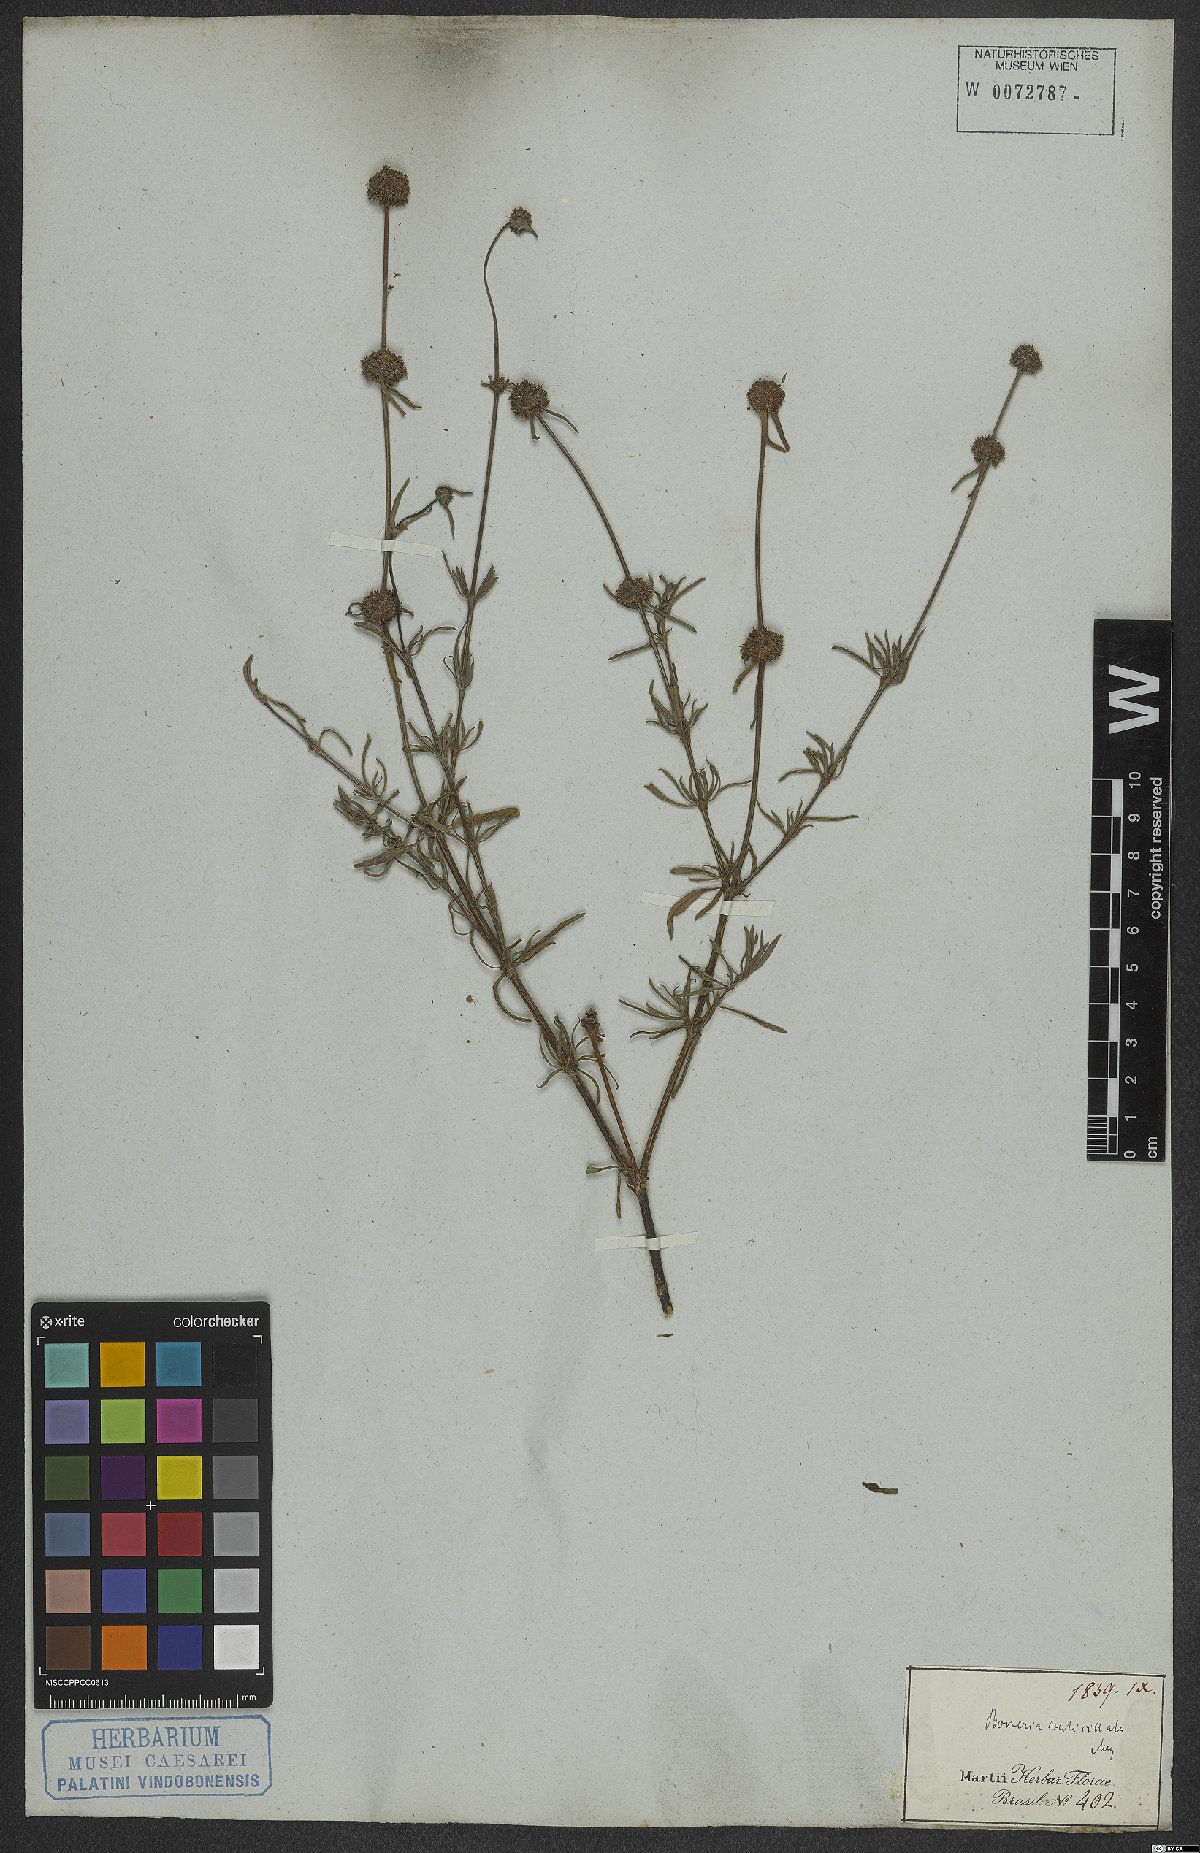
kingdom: Plantae
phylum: Tracheophyta
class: Magnoliopsida
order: Gentianales
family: Rubiaceae
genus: Spermacoce
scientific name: Spermacoce verticillata
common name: Shrubby false buttonweed
